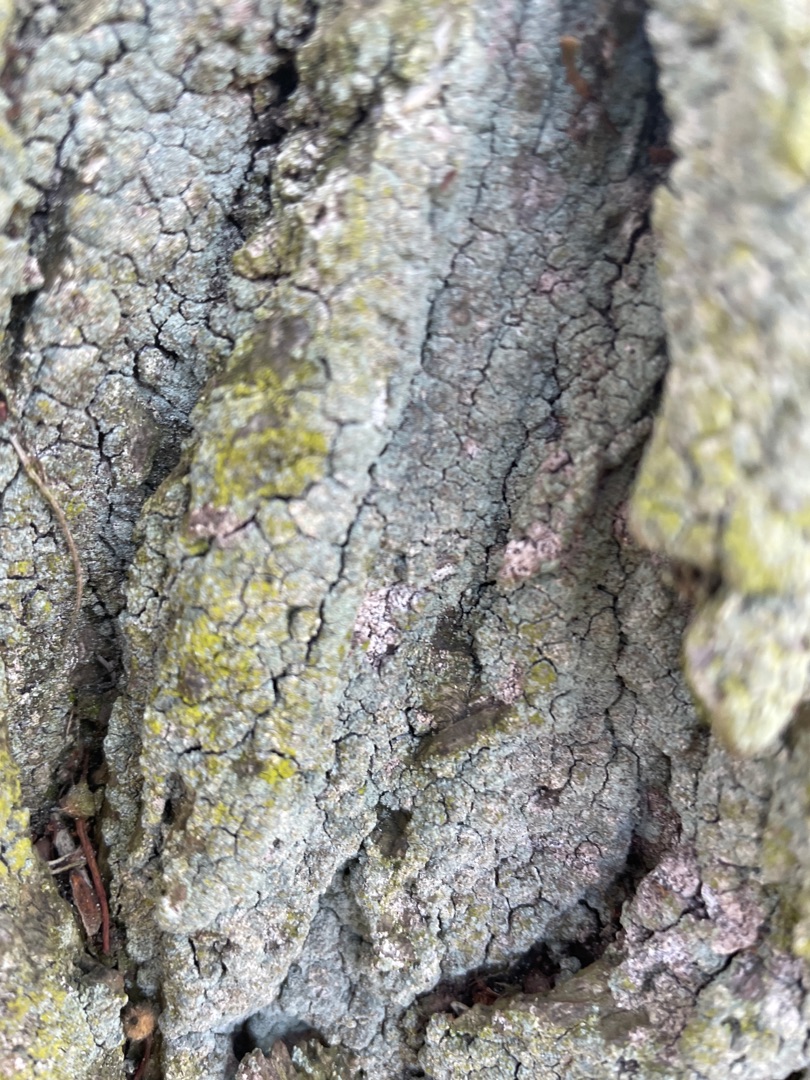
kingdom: Fungi
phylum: Ascomycota
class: Candelariomycetes
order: Candelariales
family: Candelariaceae
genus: Candelariella
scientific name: Candelariella xanthostigma
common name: Kornet æggeblommelav
